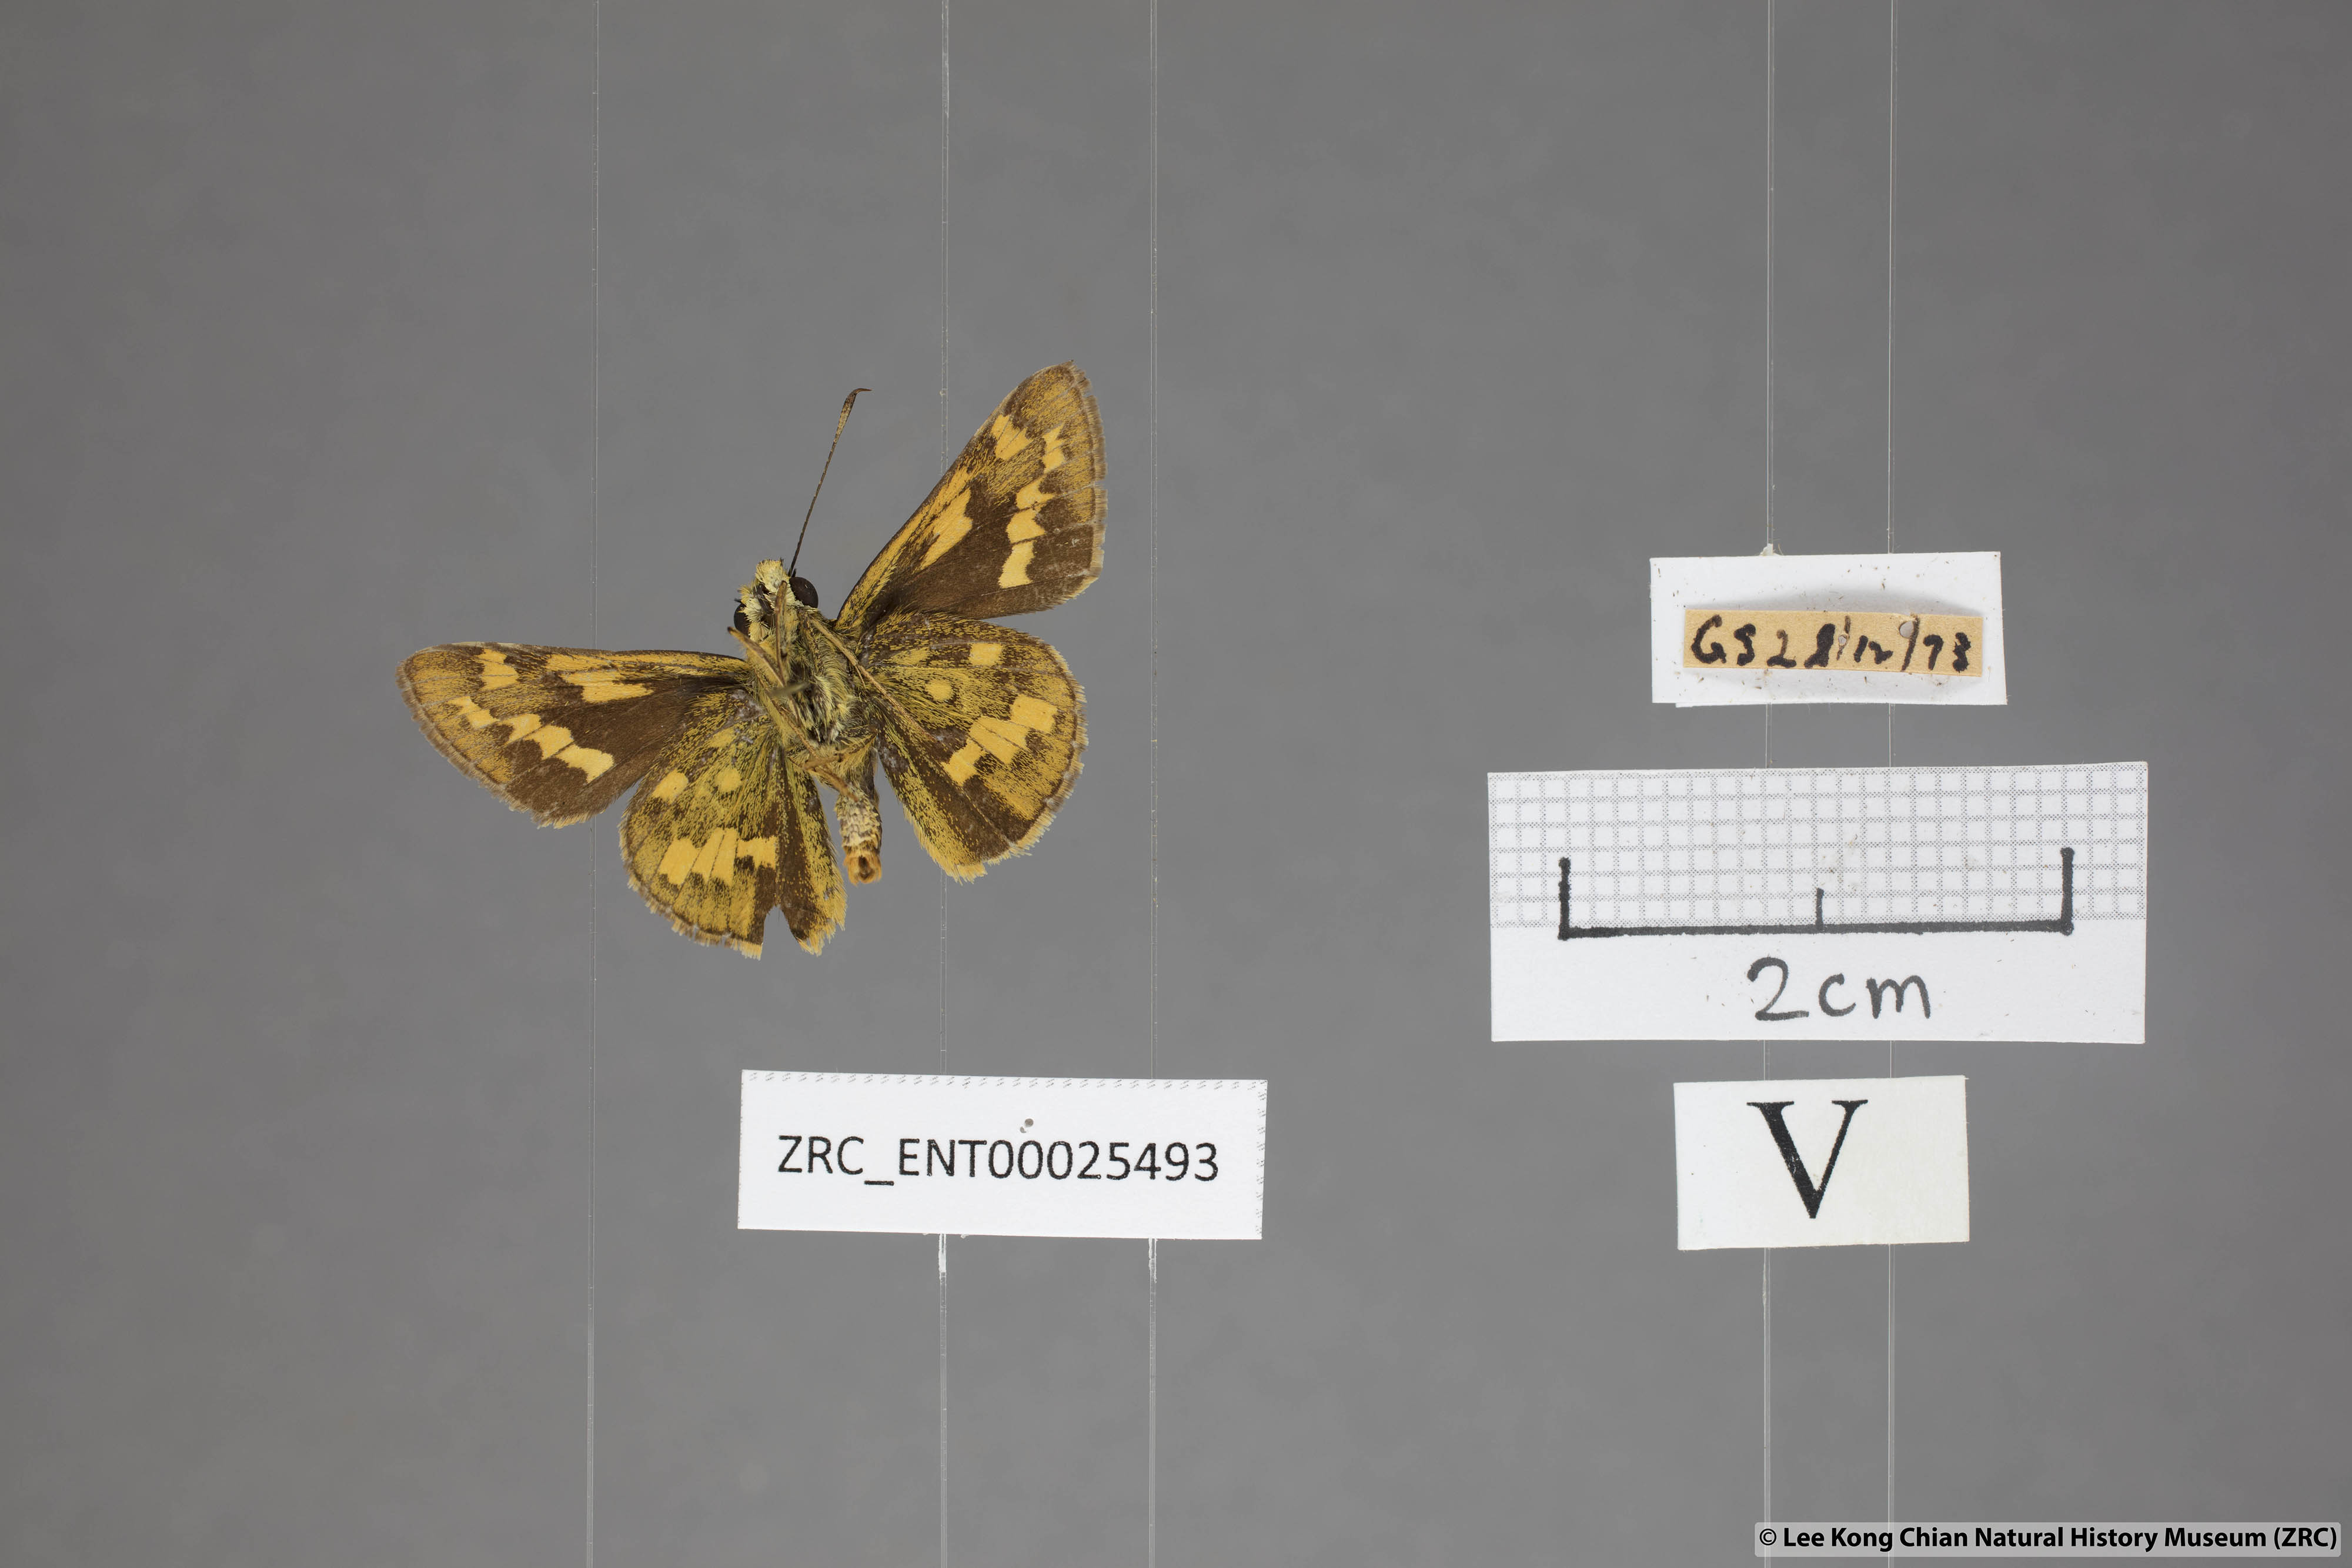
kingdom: Animalia
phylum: Arthropoda
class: Insecta
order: Lepidoptera
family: Hesperiidae
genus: Potanthus
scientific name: Potanthus trachala
